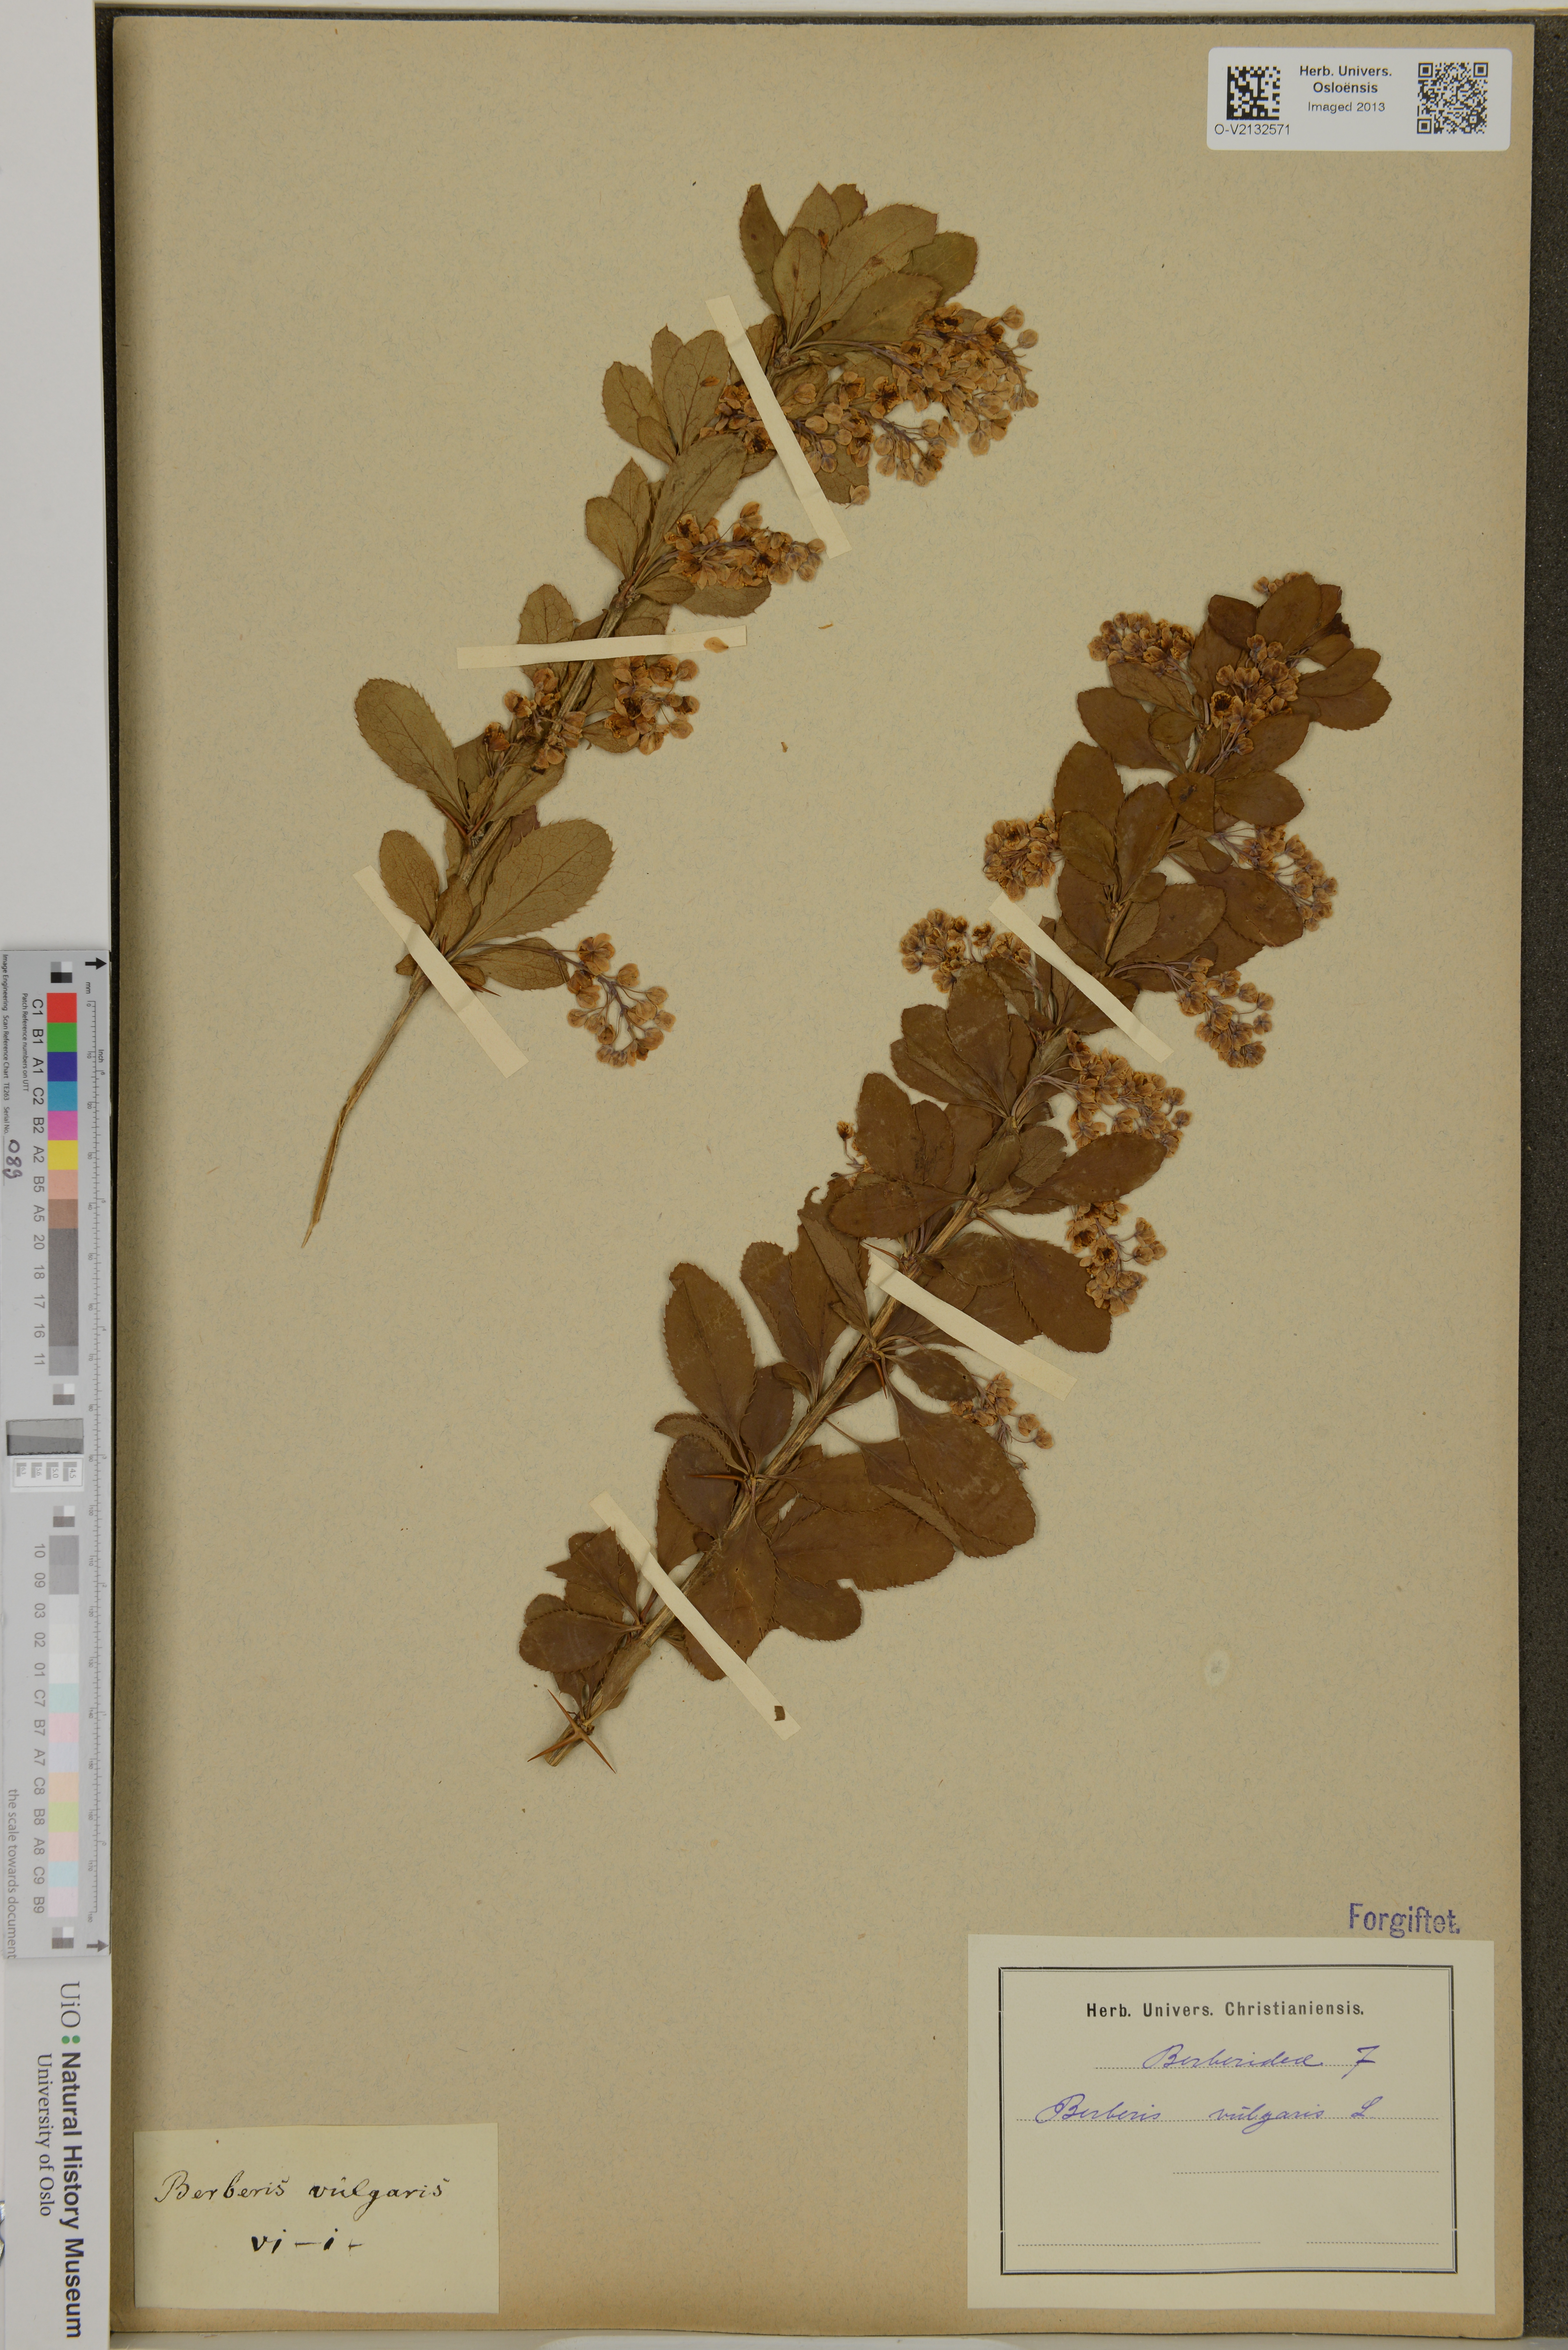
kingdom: Plantae
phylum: Tracheophyta
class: Magnoliopsida
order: Ranunculales
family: Berberidaceae
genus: Berberis
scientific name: Berberis vulgaris
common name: Barberry
